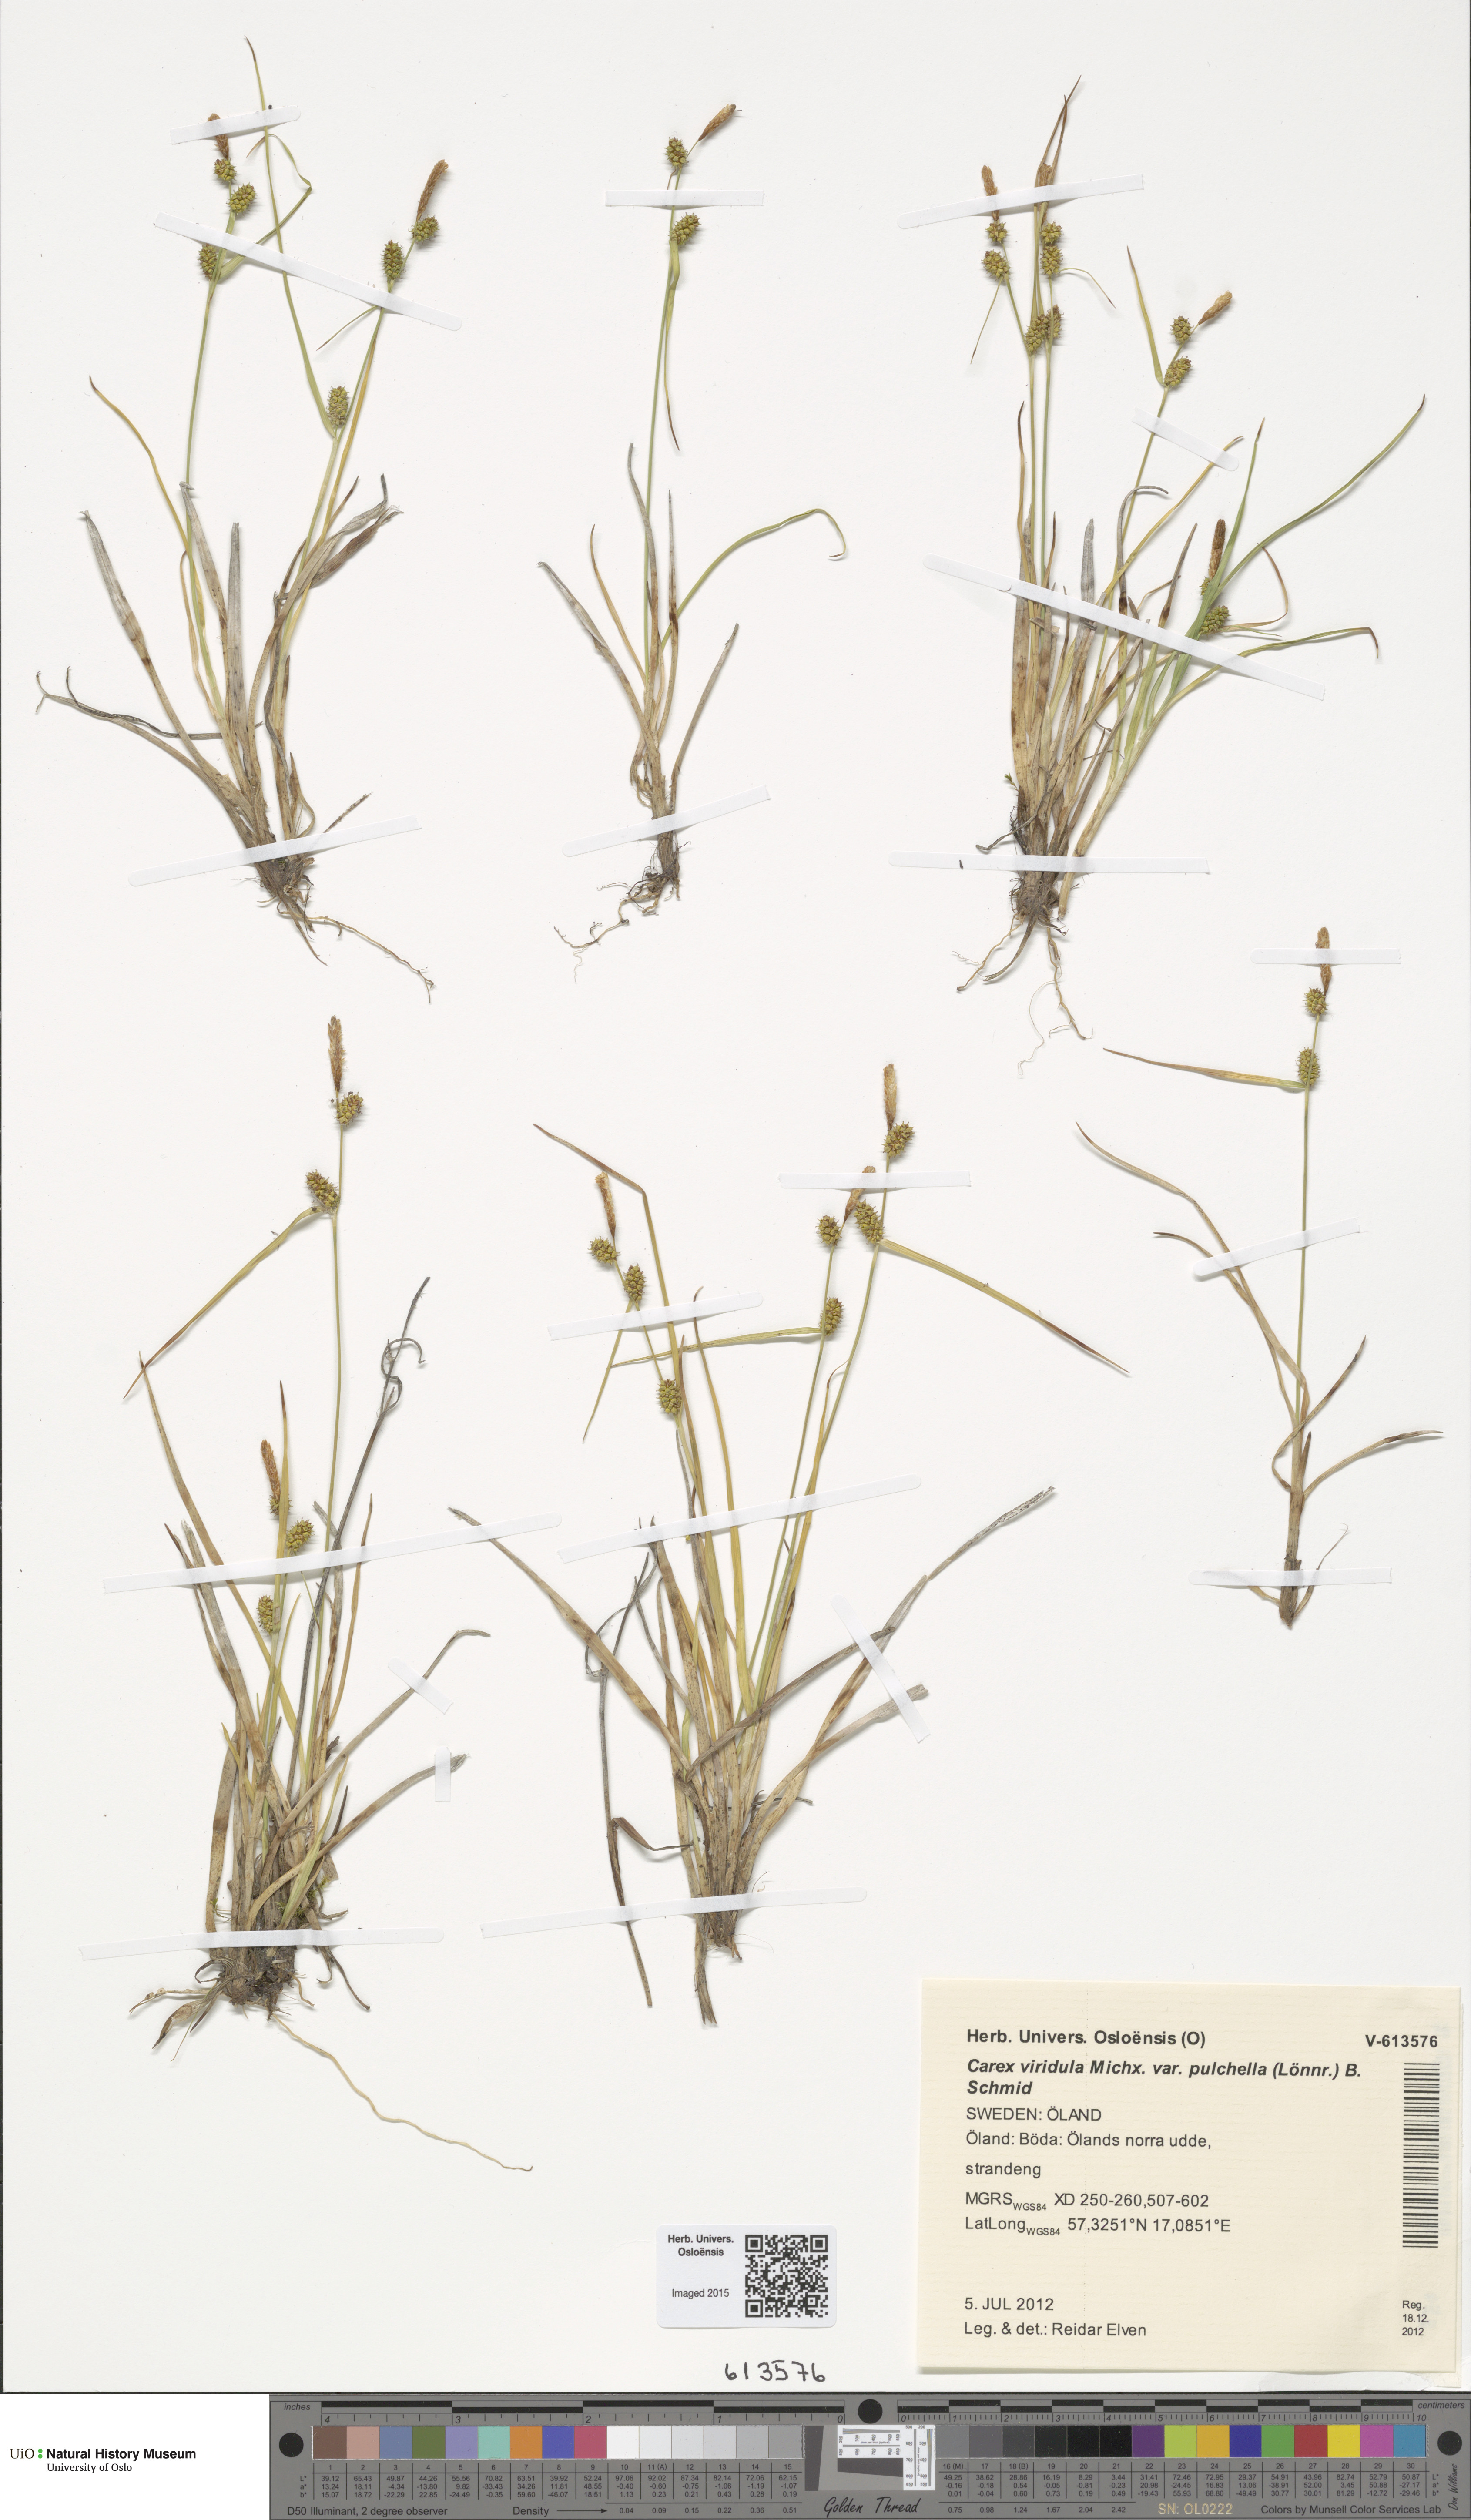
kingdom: Plantae
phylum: Tracheophyta
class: Liliopsida
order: Poales
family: Cyperaceae
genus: Carex
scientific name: Carex oederi
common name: Common & small-fruited yellow-sedge
